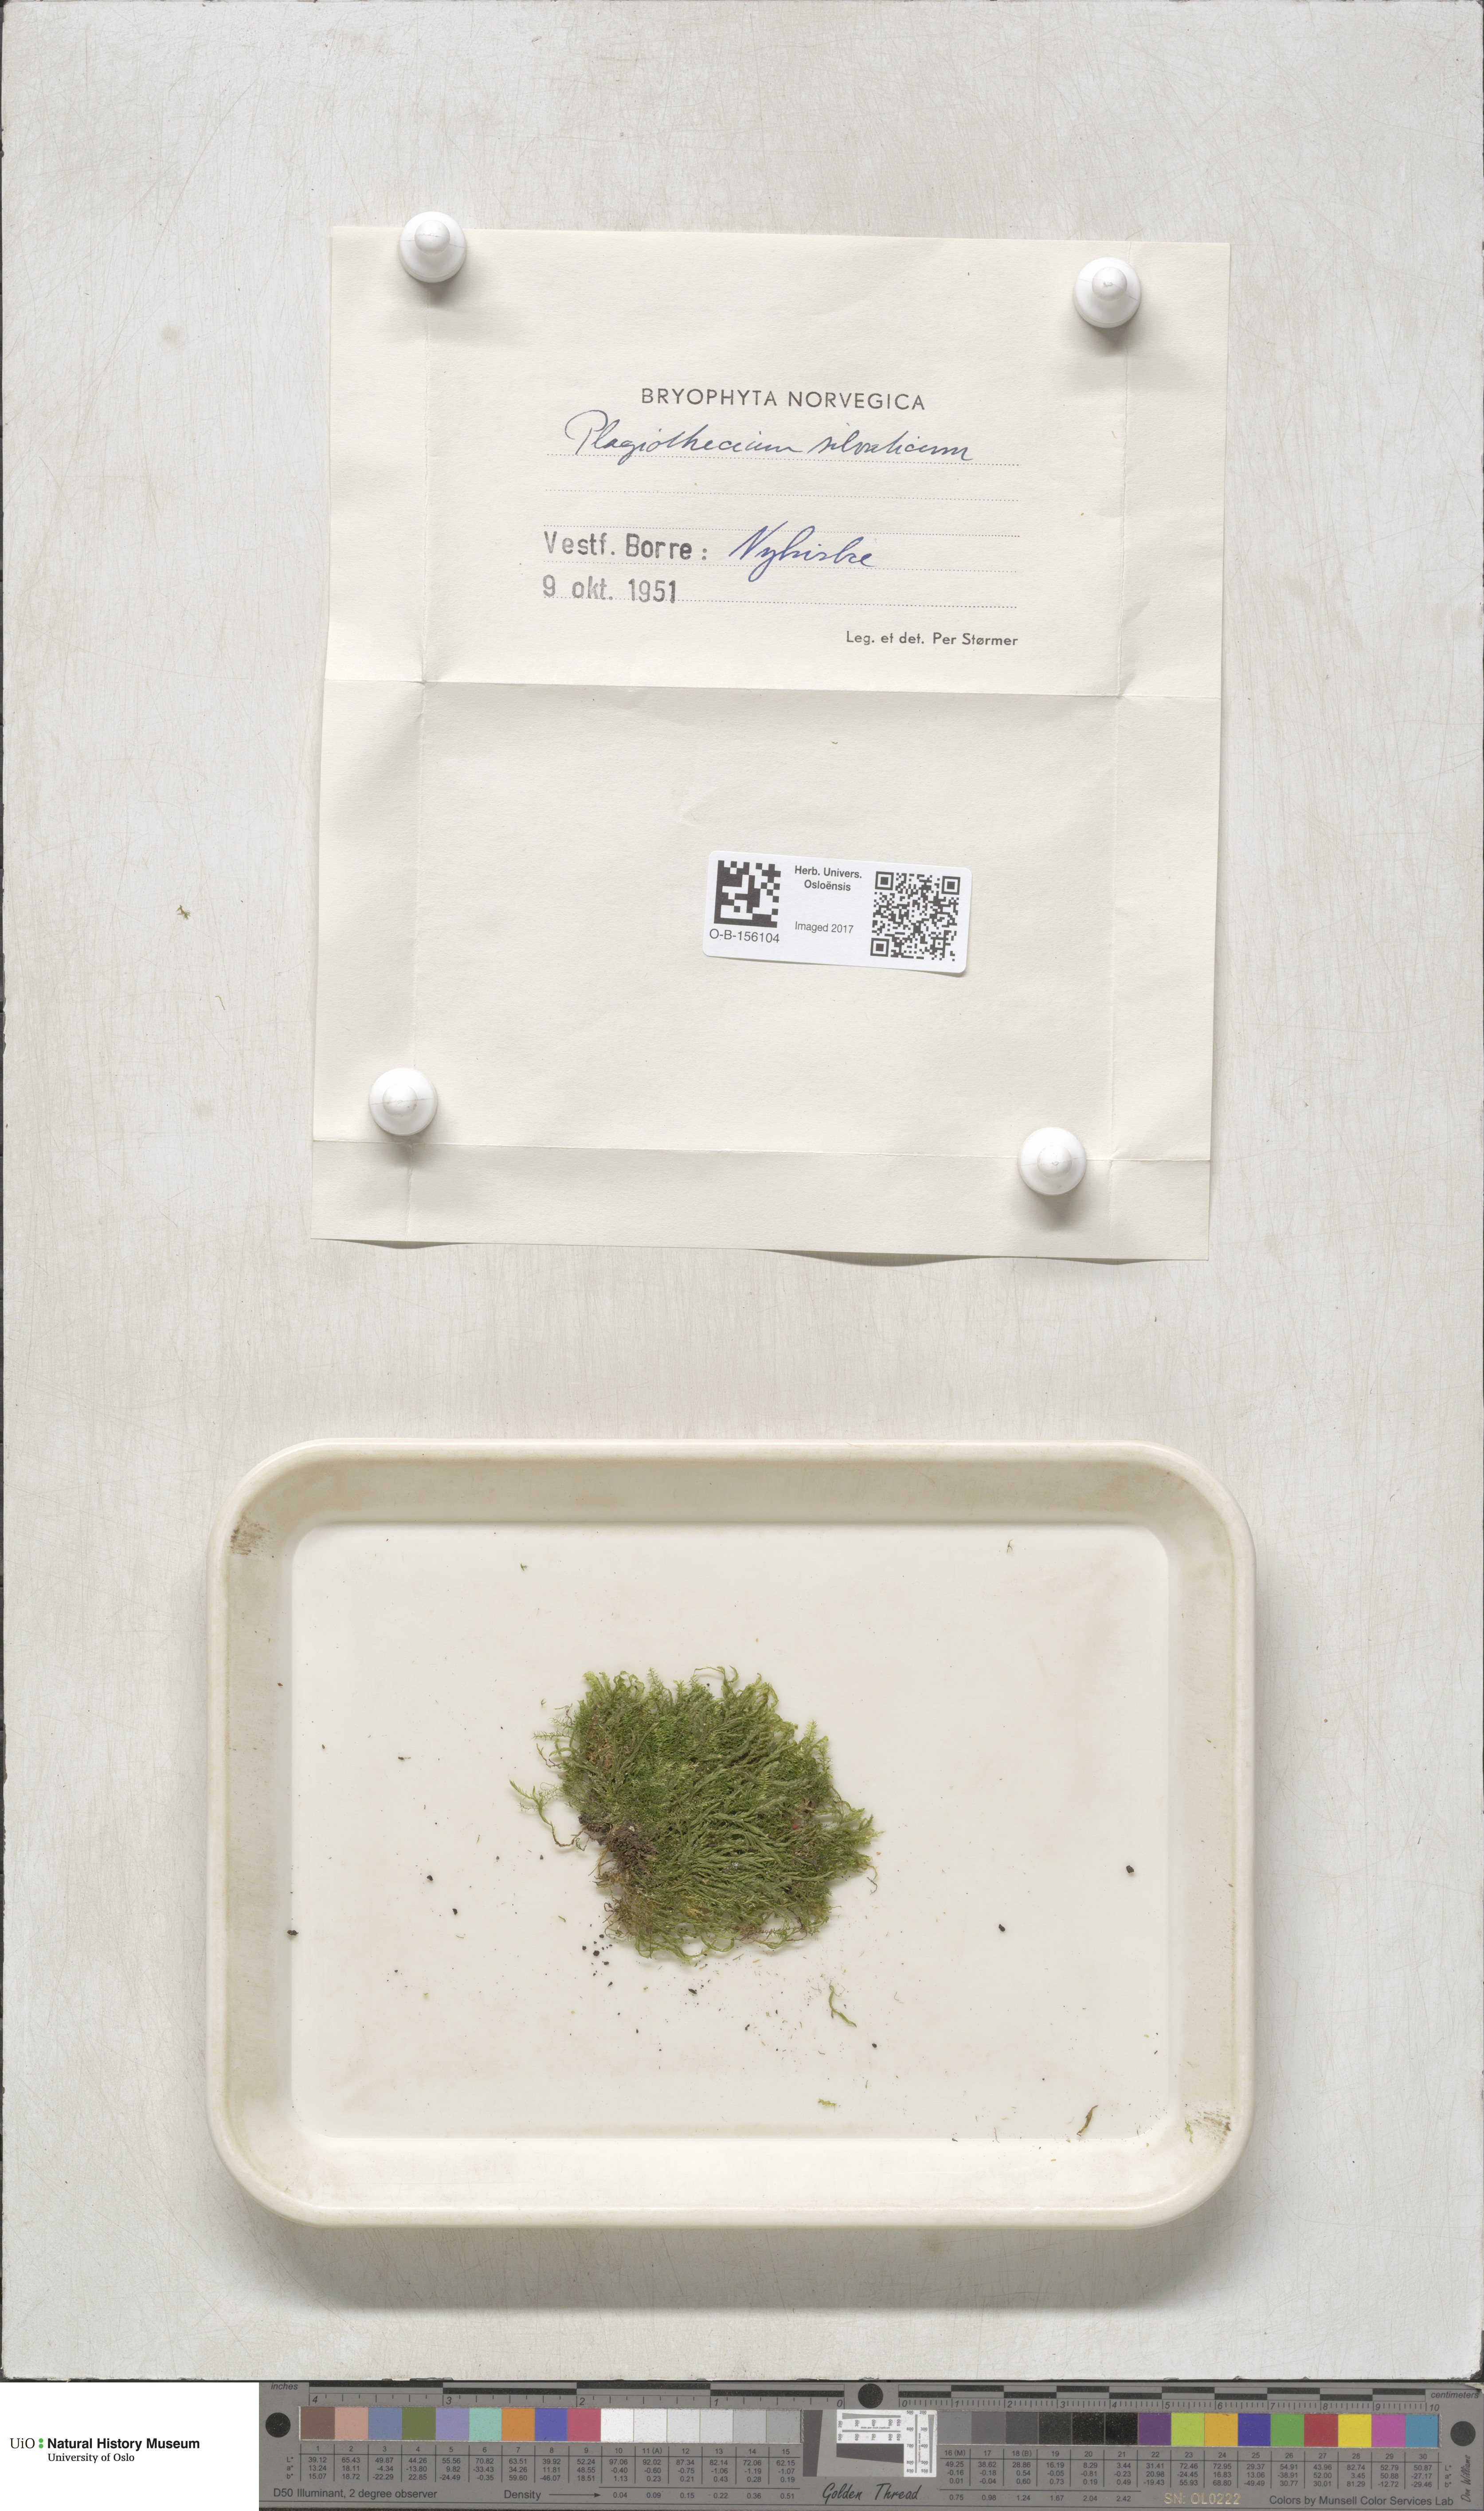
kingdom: Plantae
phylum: Bryophyta
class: Bryopsida
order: Hypnales
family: Plagiotheciaceae
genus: Plagiothecium
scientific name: Plagiothecium nemorale
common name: Woodsy silk-moss
